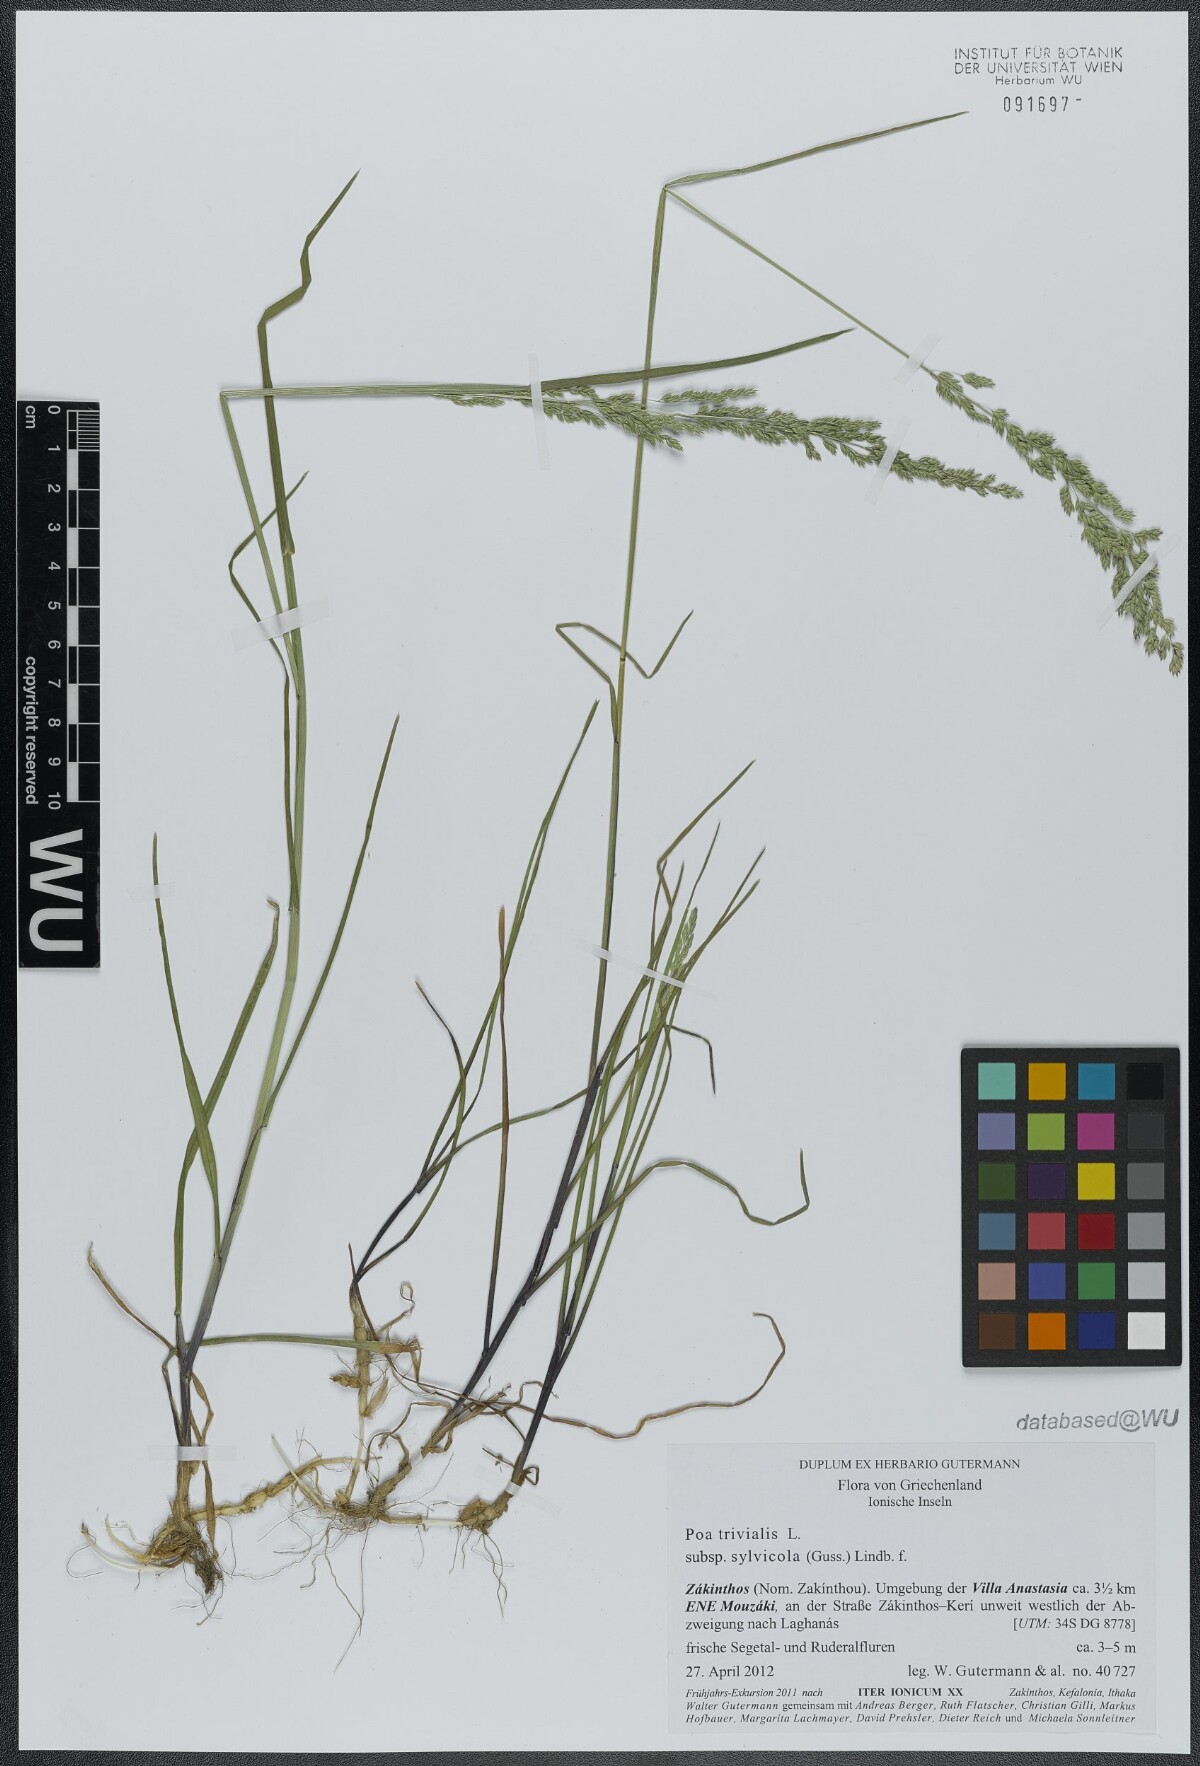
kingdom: Plantae
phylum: Tracheophyta
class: Liliopsida
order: Poales
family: Poaceae
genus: Poa
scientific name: Poa trivialis
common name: Rough bluegrass
